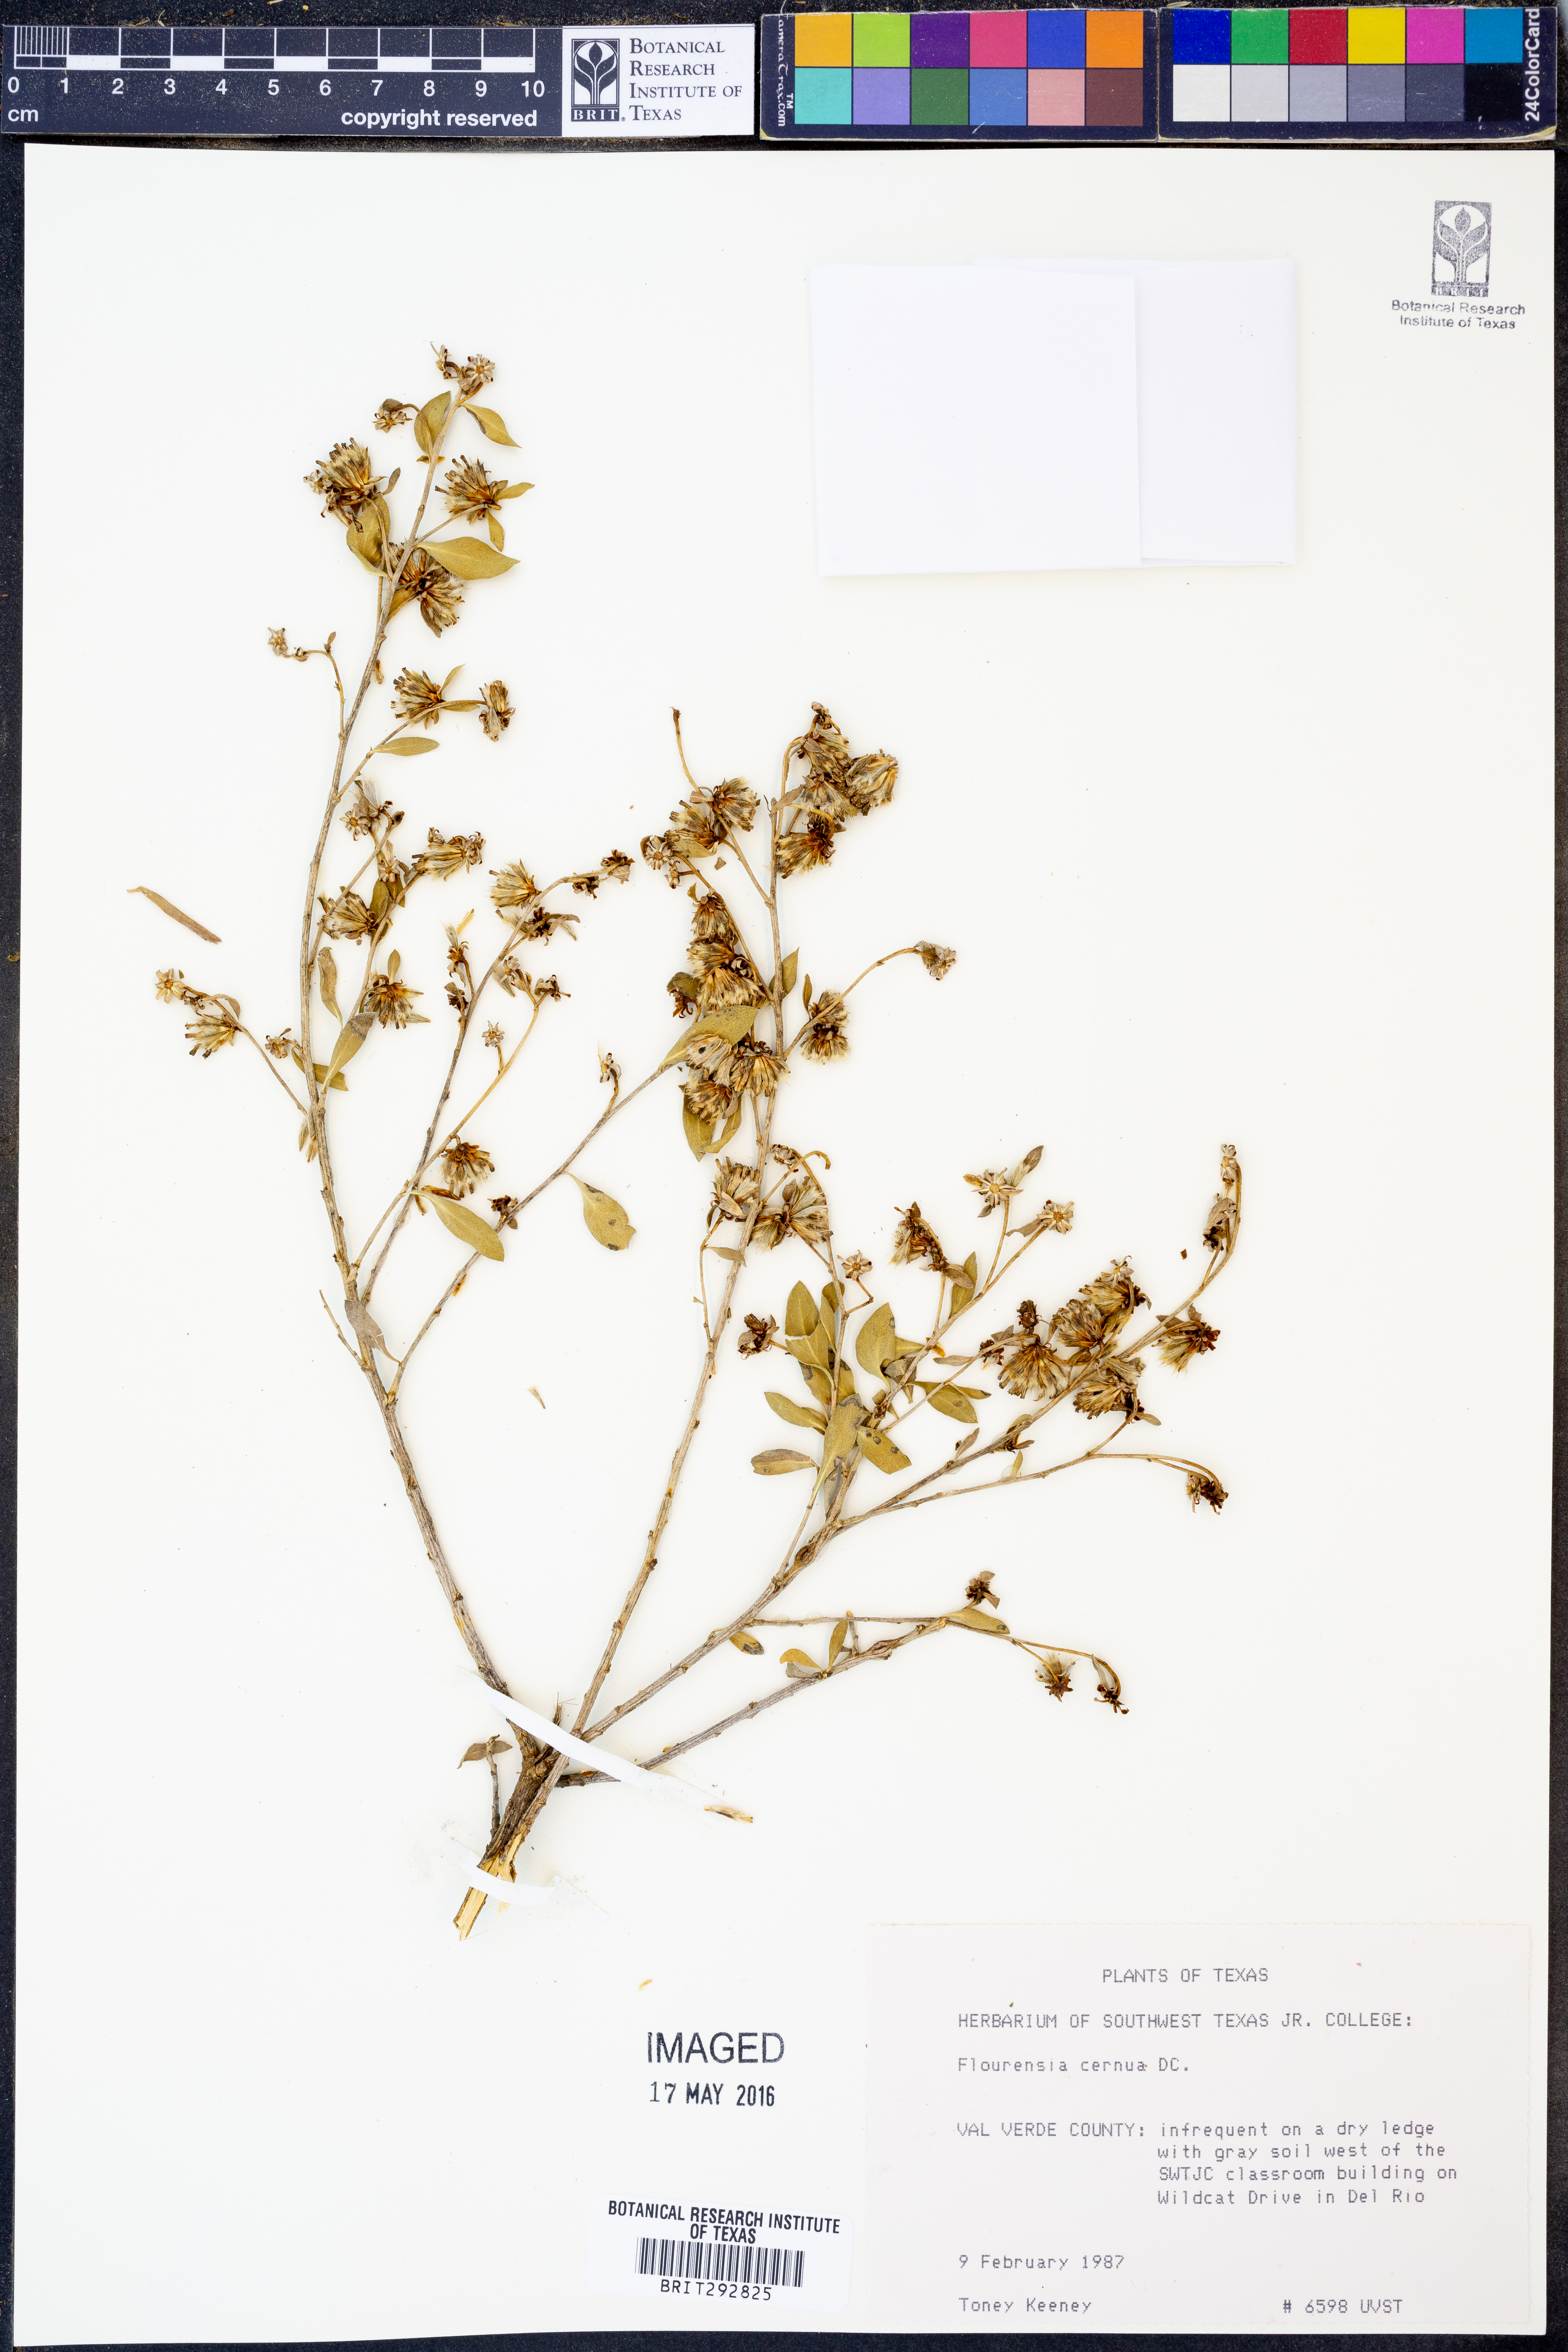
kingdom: Plantae
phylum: Tracheophyta
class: Magnoliopsida
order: Asterales
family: Asteraceae
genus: Flourensia
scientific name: Flourensia cernua
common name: Varnishbush
